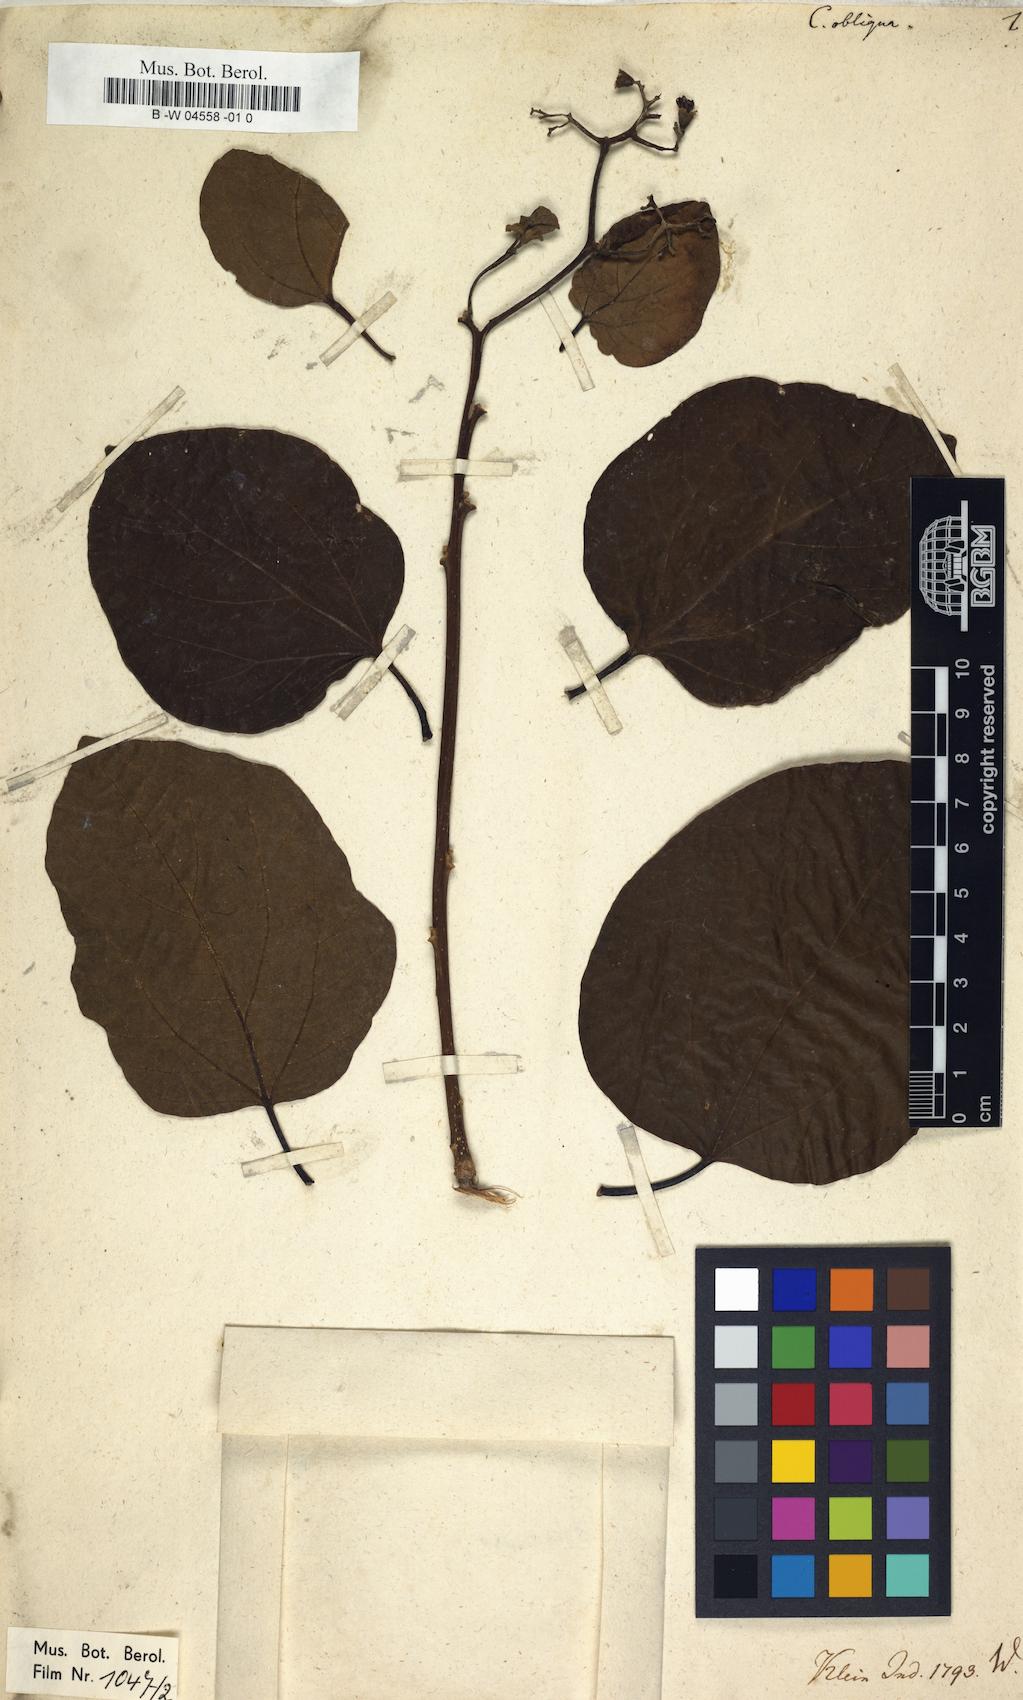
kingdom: Plantae
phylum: Tracheophyta
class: Magnoliopsida
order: Boraginales
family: Cordiaceae
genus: Cordia
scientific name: Cordia dichotoma
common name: Fragrant manjack
